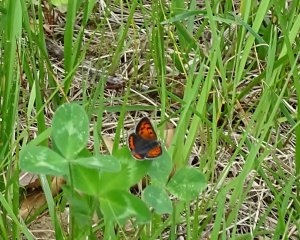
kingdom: Animalia
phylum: Arthropoda
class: Insecta
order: Lepidoptera
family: Lycaenidae
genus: Lycaena
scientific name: Lycaena phlaeas
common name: American Copper
